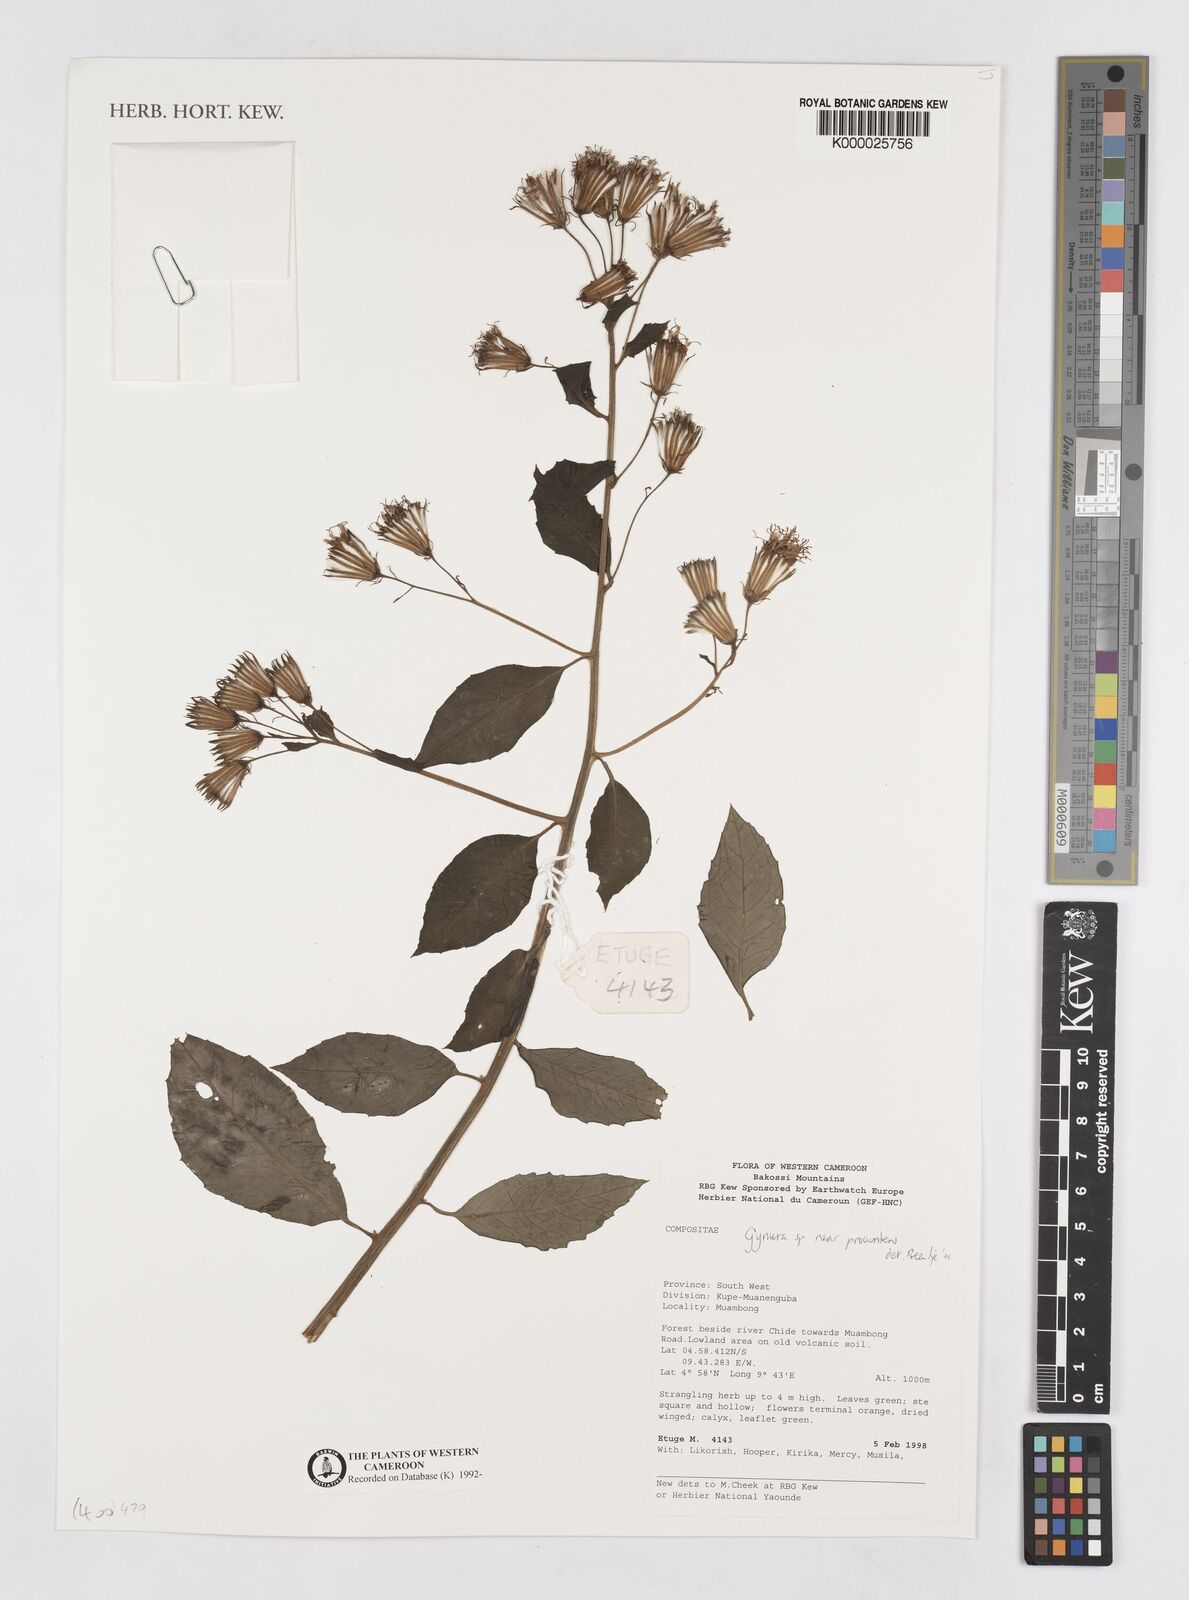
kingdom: Plantae
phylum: Tracheophyta
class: Magnoliopsida
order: Asterales
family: Asteraceae
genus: Gynura
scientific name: Gynura
